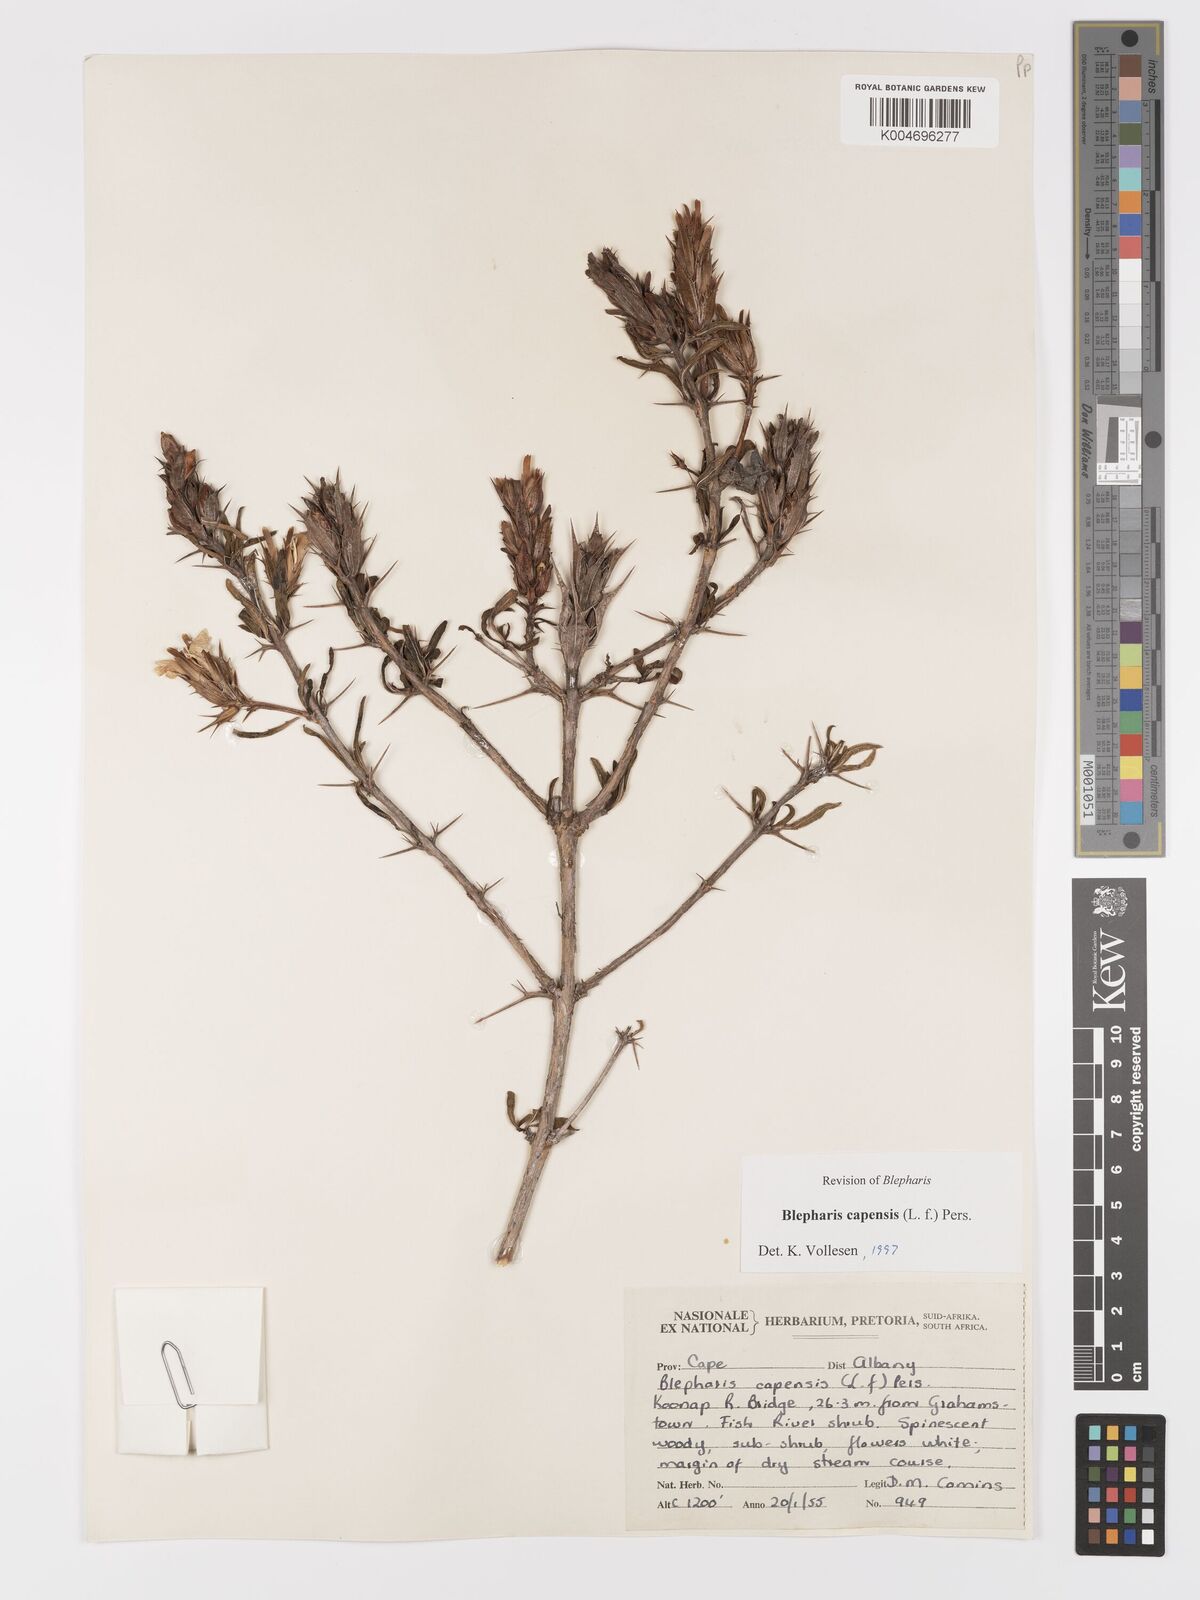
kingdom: Plantae
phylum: Tracheophyta
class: Magnoliopsida
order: Lamiales
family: Acanthaceae
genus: Blepharis
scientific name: Blepharis capensis
